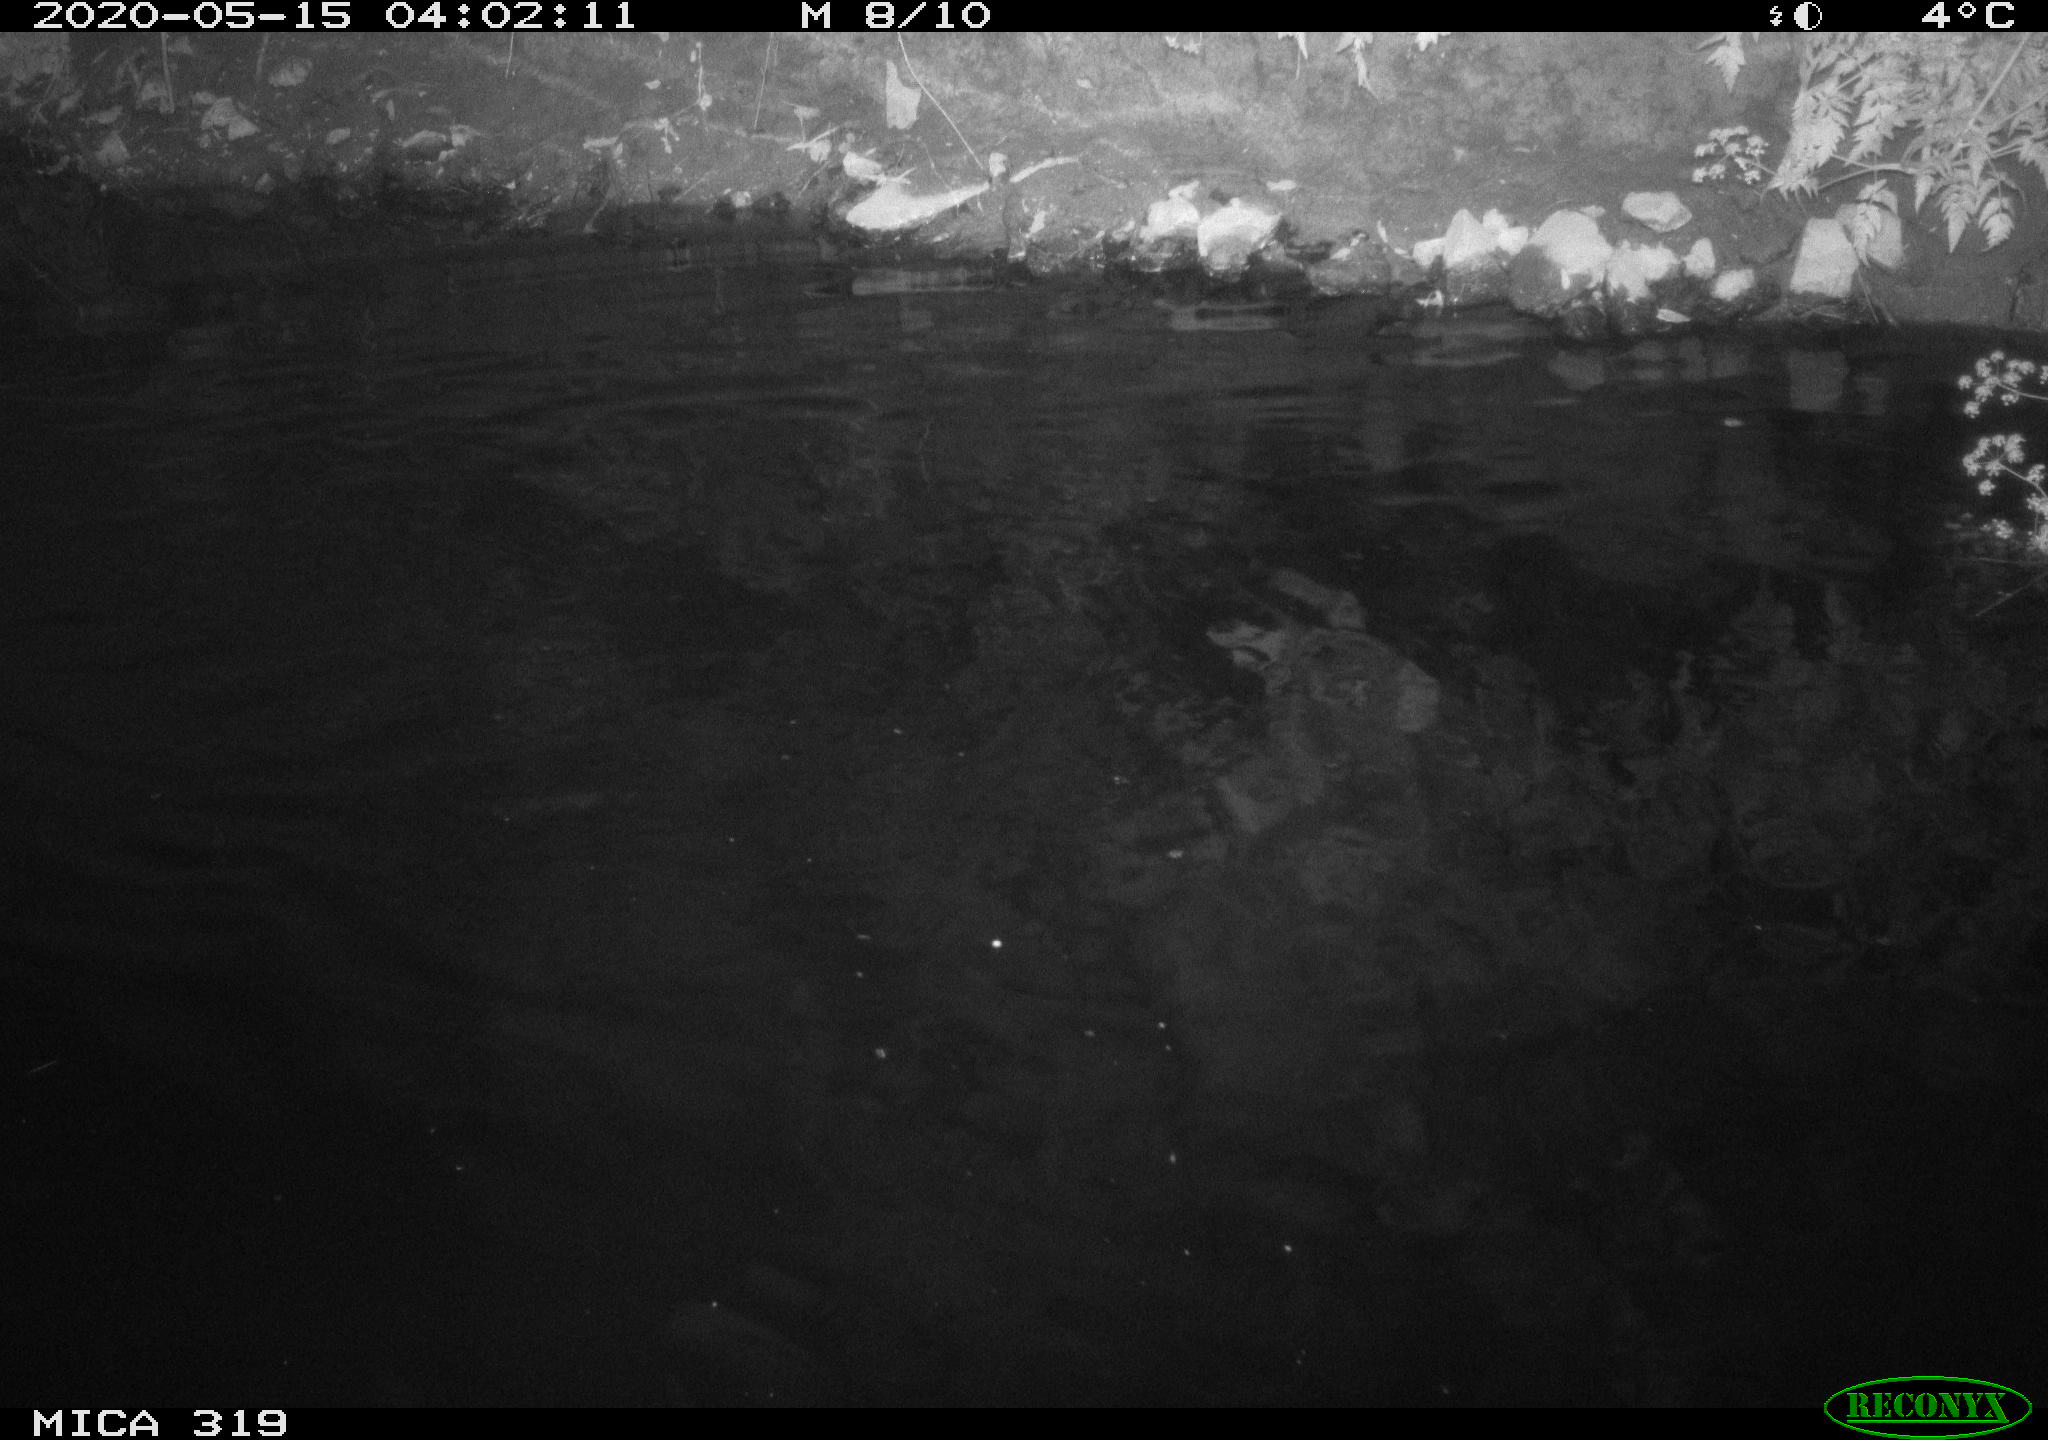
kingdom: Animalia
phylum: Chordata
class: Aves
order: Anseriformes
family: Anatidae
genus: Anas
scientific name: Anas platyrhynchos
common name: Mallard
